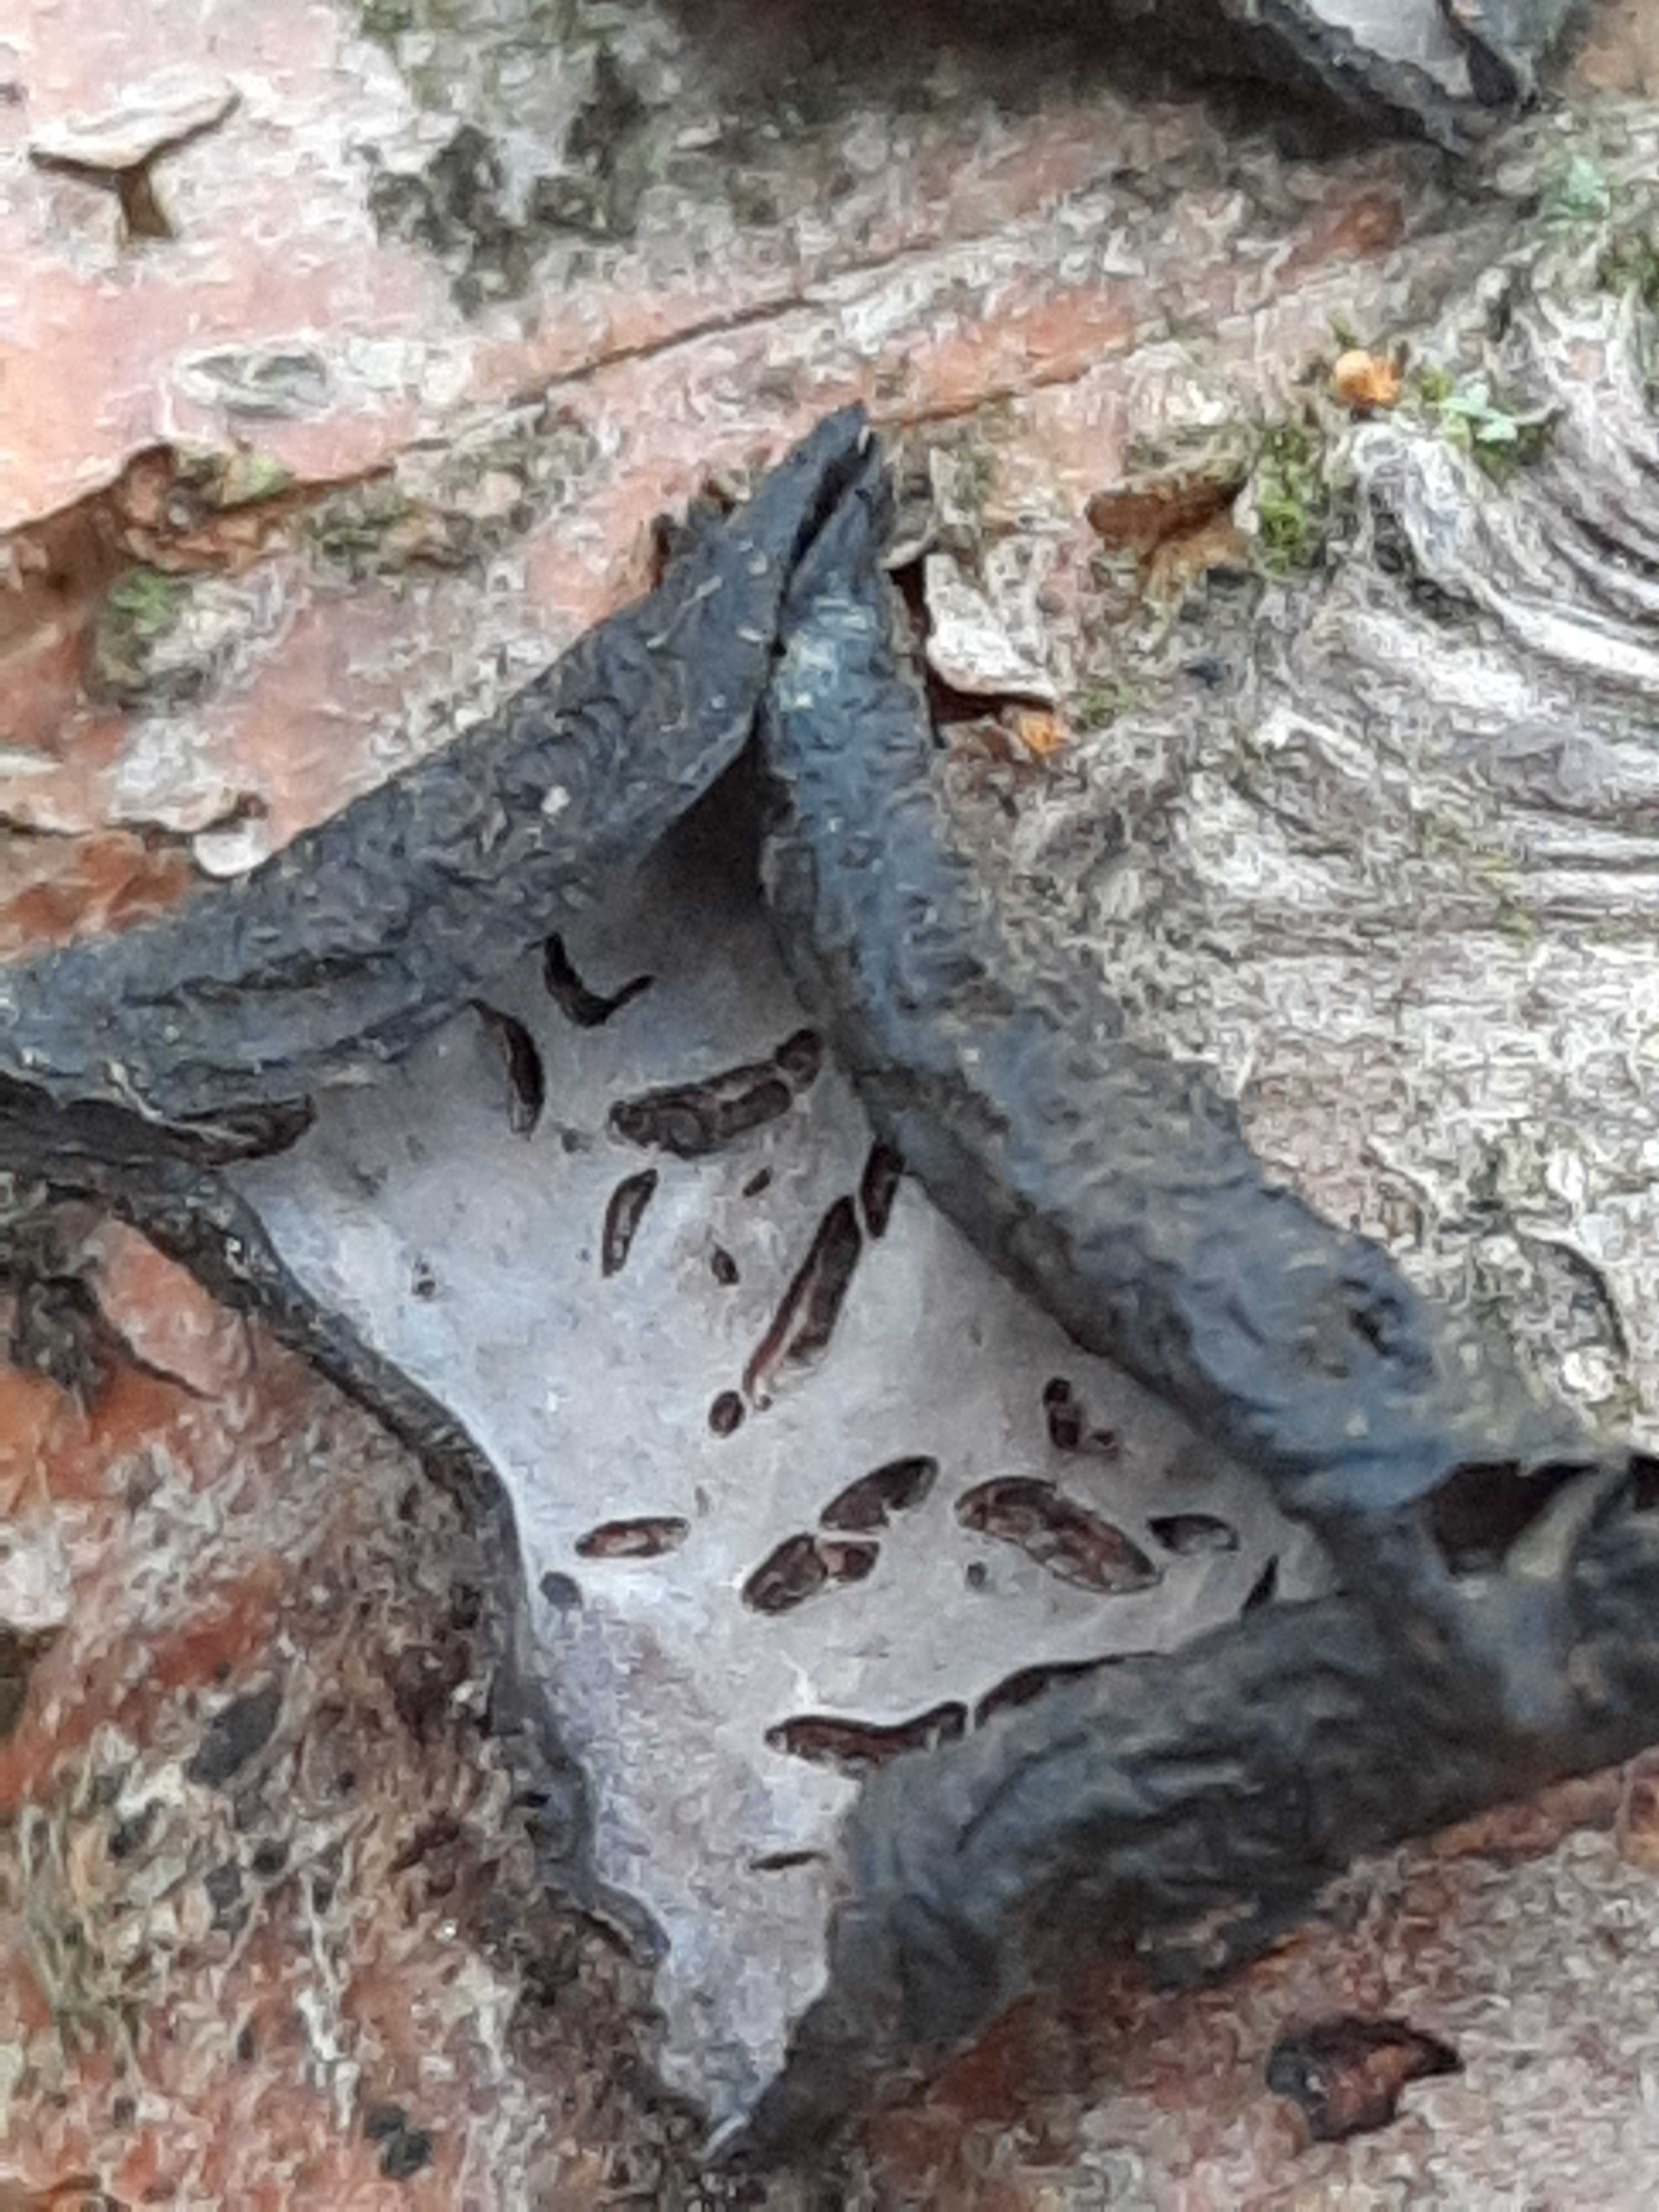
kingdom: Fungi
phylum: Basidiomycota
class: Agaricomycetes
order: Russulales
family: Peniophoraceae
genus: Peniophora
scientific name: Peniophora quercina
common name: ege-voksskind
